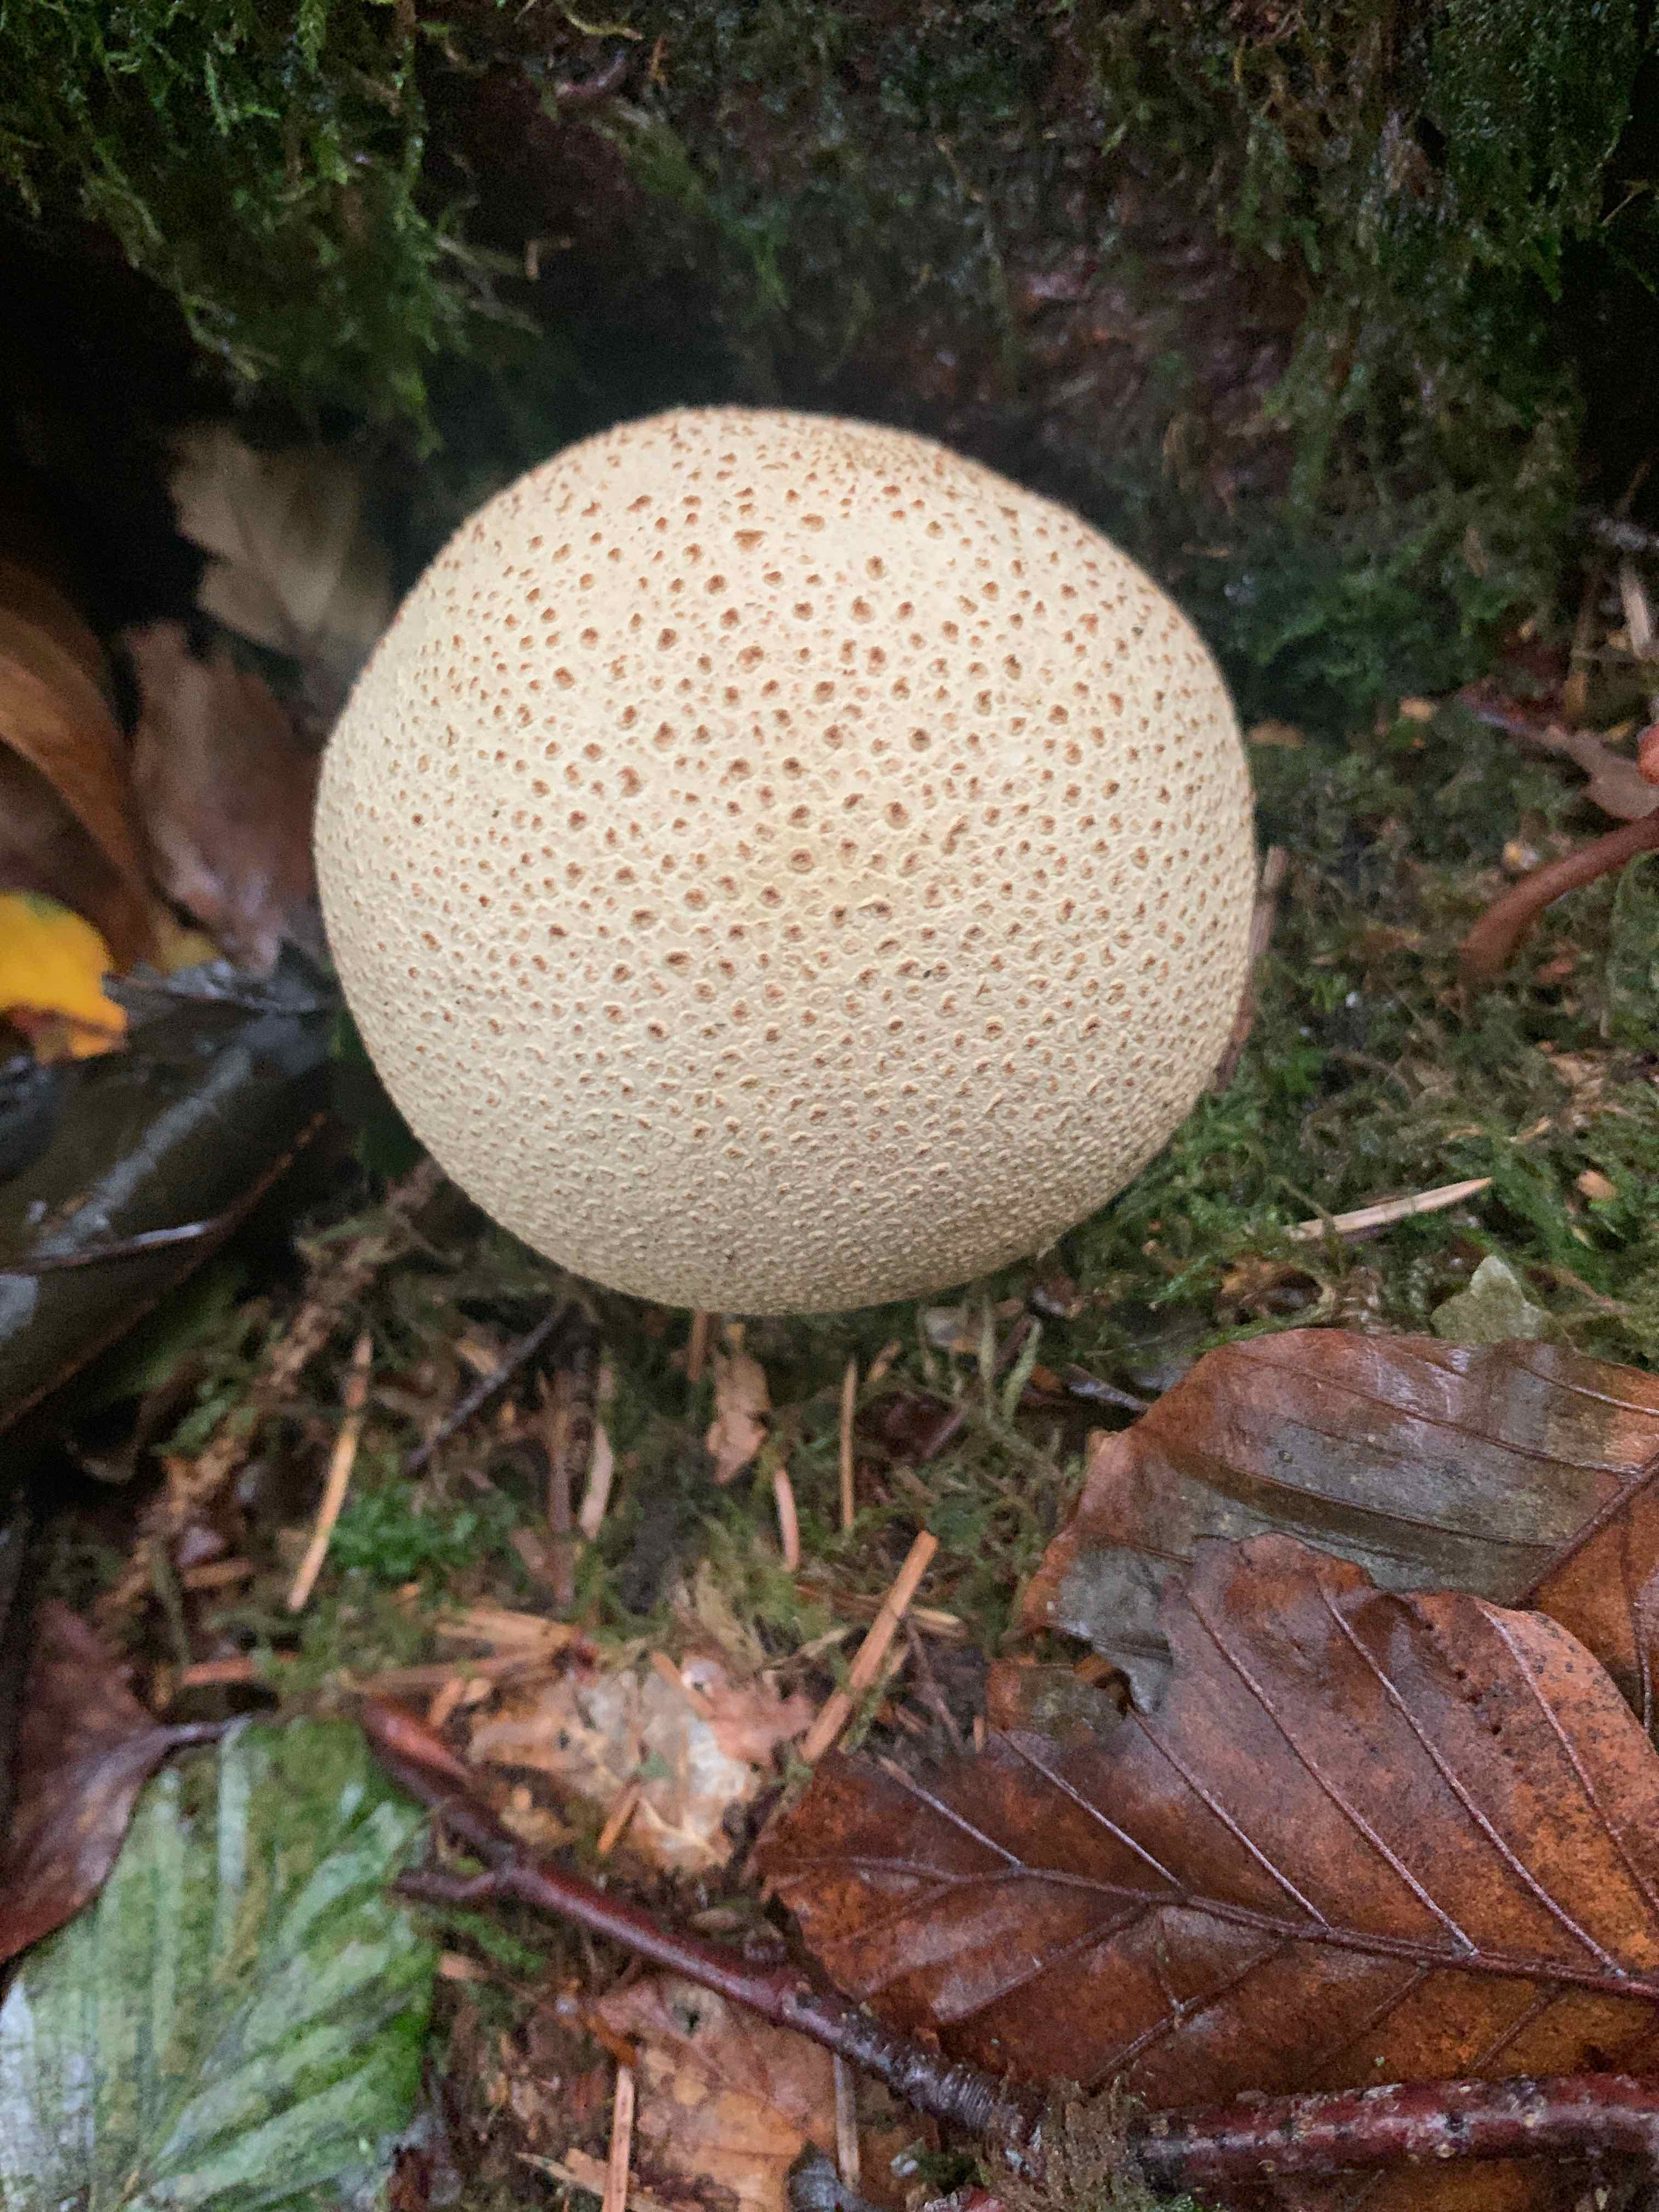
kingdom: Fungi
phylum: Basidiomycota
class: Agaricomycetes
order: Boletales
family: Sclerodermataceae
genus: Scleroderma
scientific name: Scleroderma citrinum
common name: almindelig bruskbold
